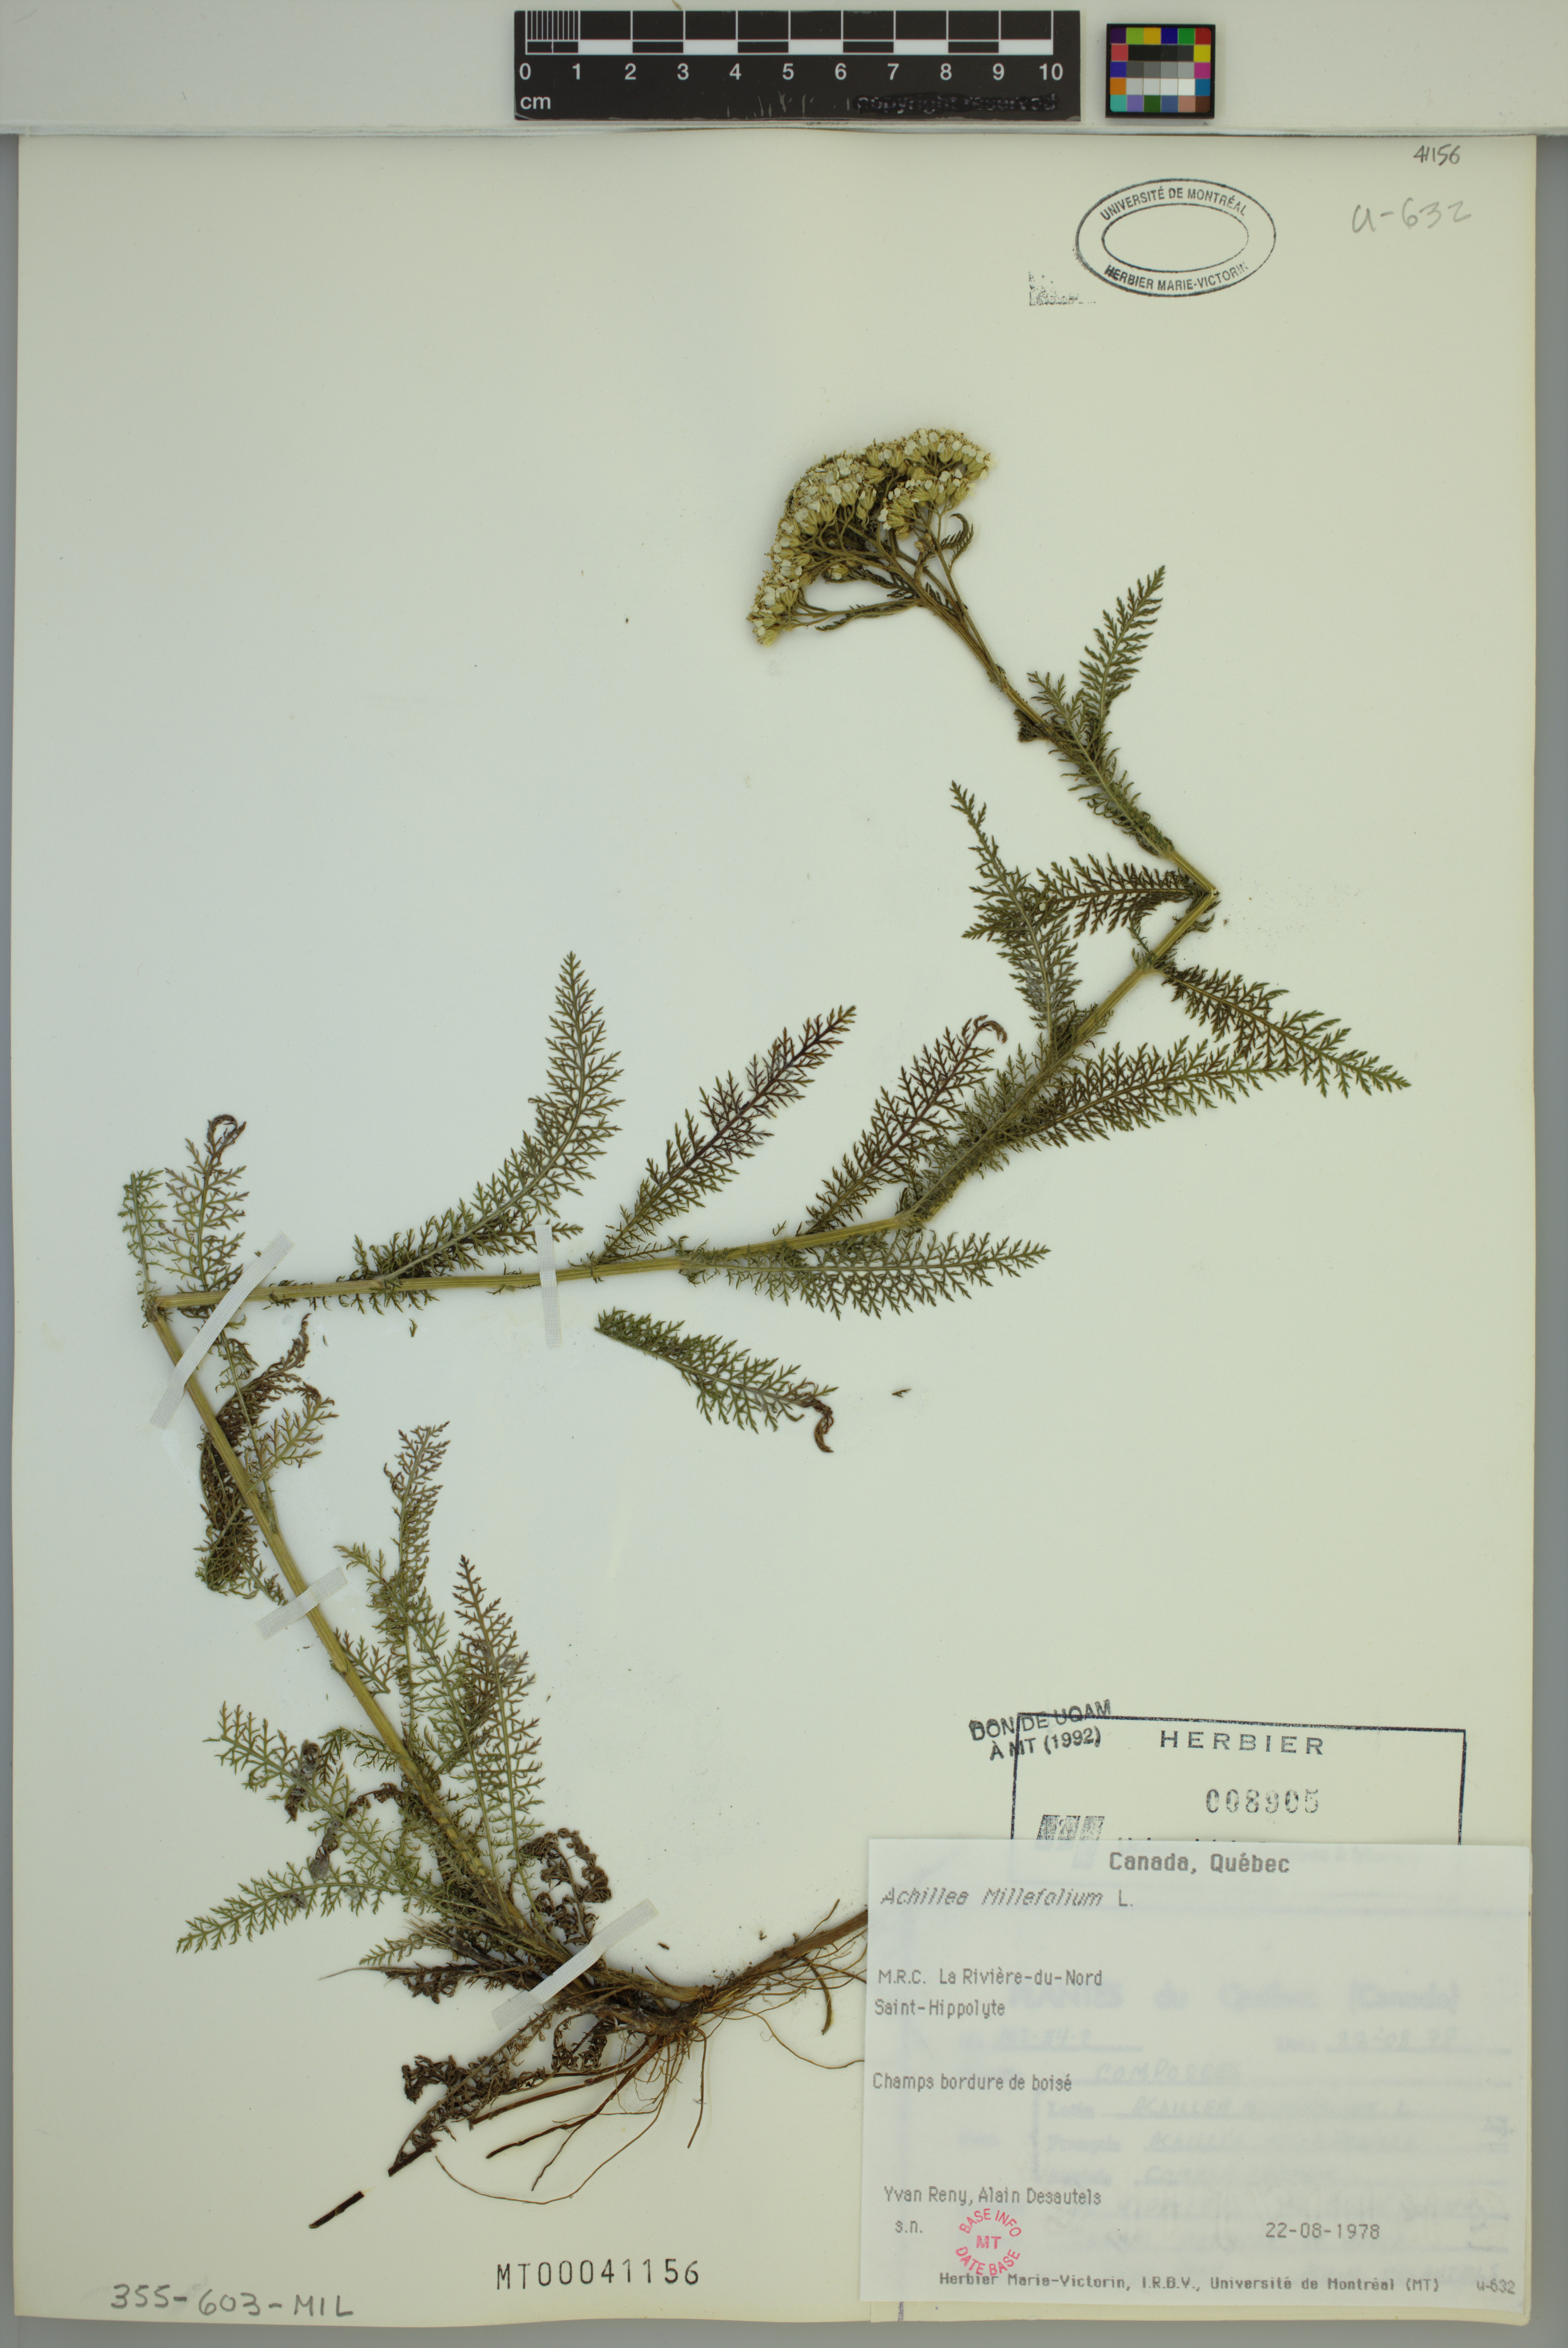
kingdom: Plantae
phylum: Tracheophyta
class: Magnoliopsida
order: Asterales
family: Asteraceae
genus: Achillea
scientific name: Achillea millefolium
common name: Yarrow
